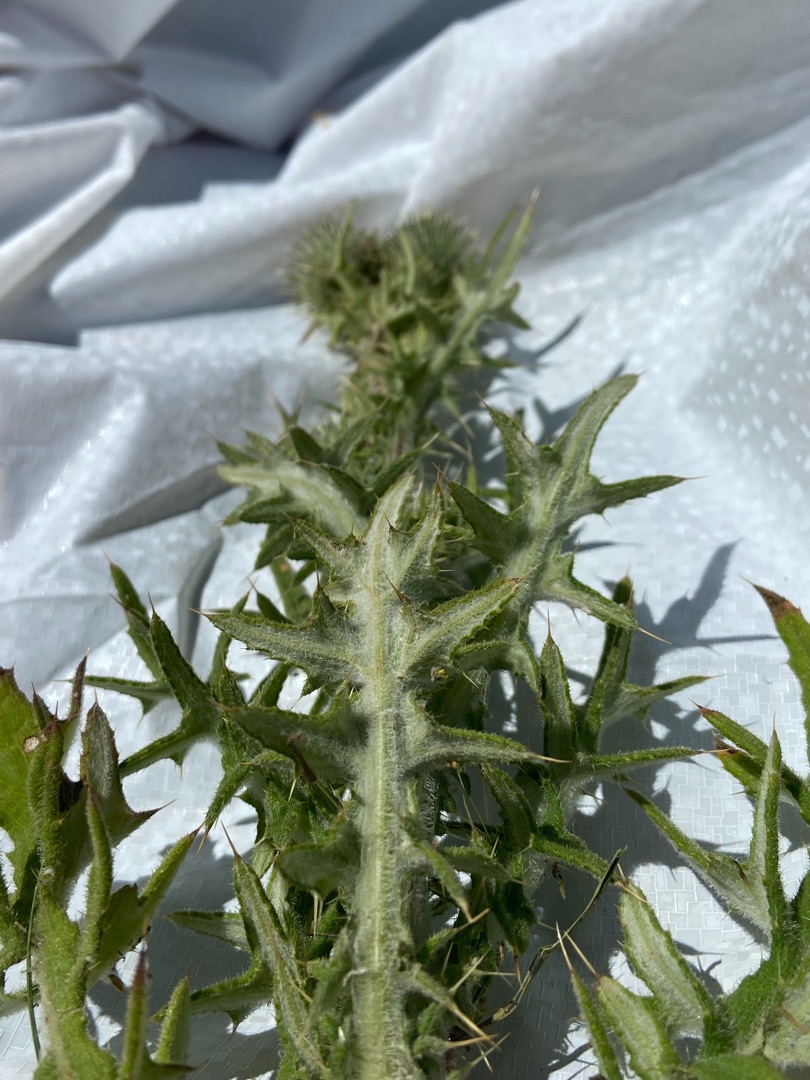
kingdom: Plantae
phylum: Tracheophyta
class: Magnoliopsida
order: Asterales
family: Asteraceae
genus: Cirsium
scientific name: Cirsium vulgare
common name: Horse-tidsel
